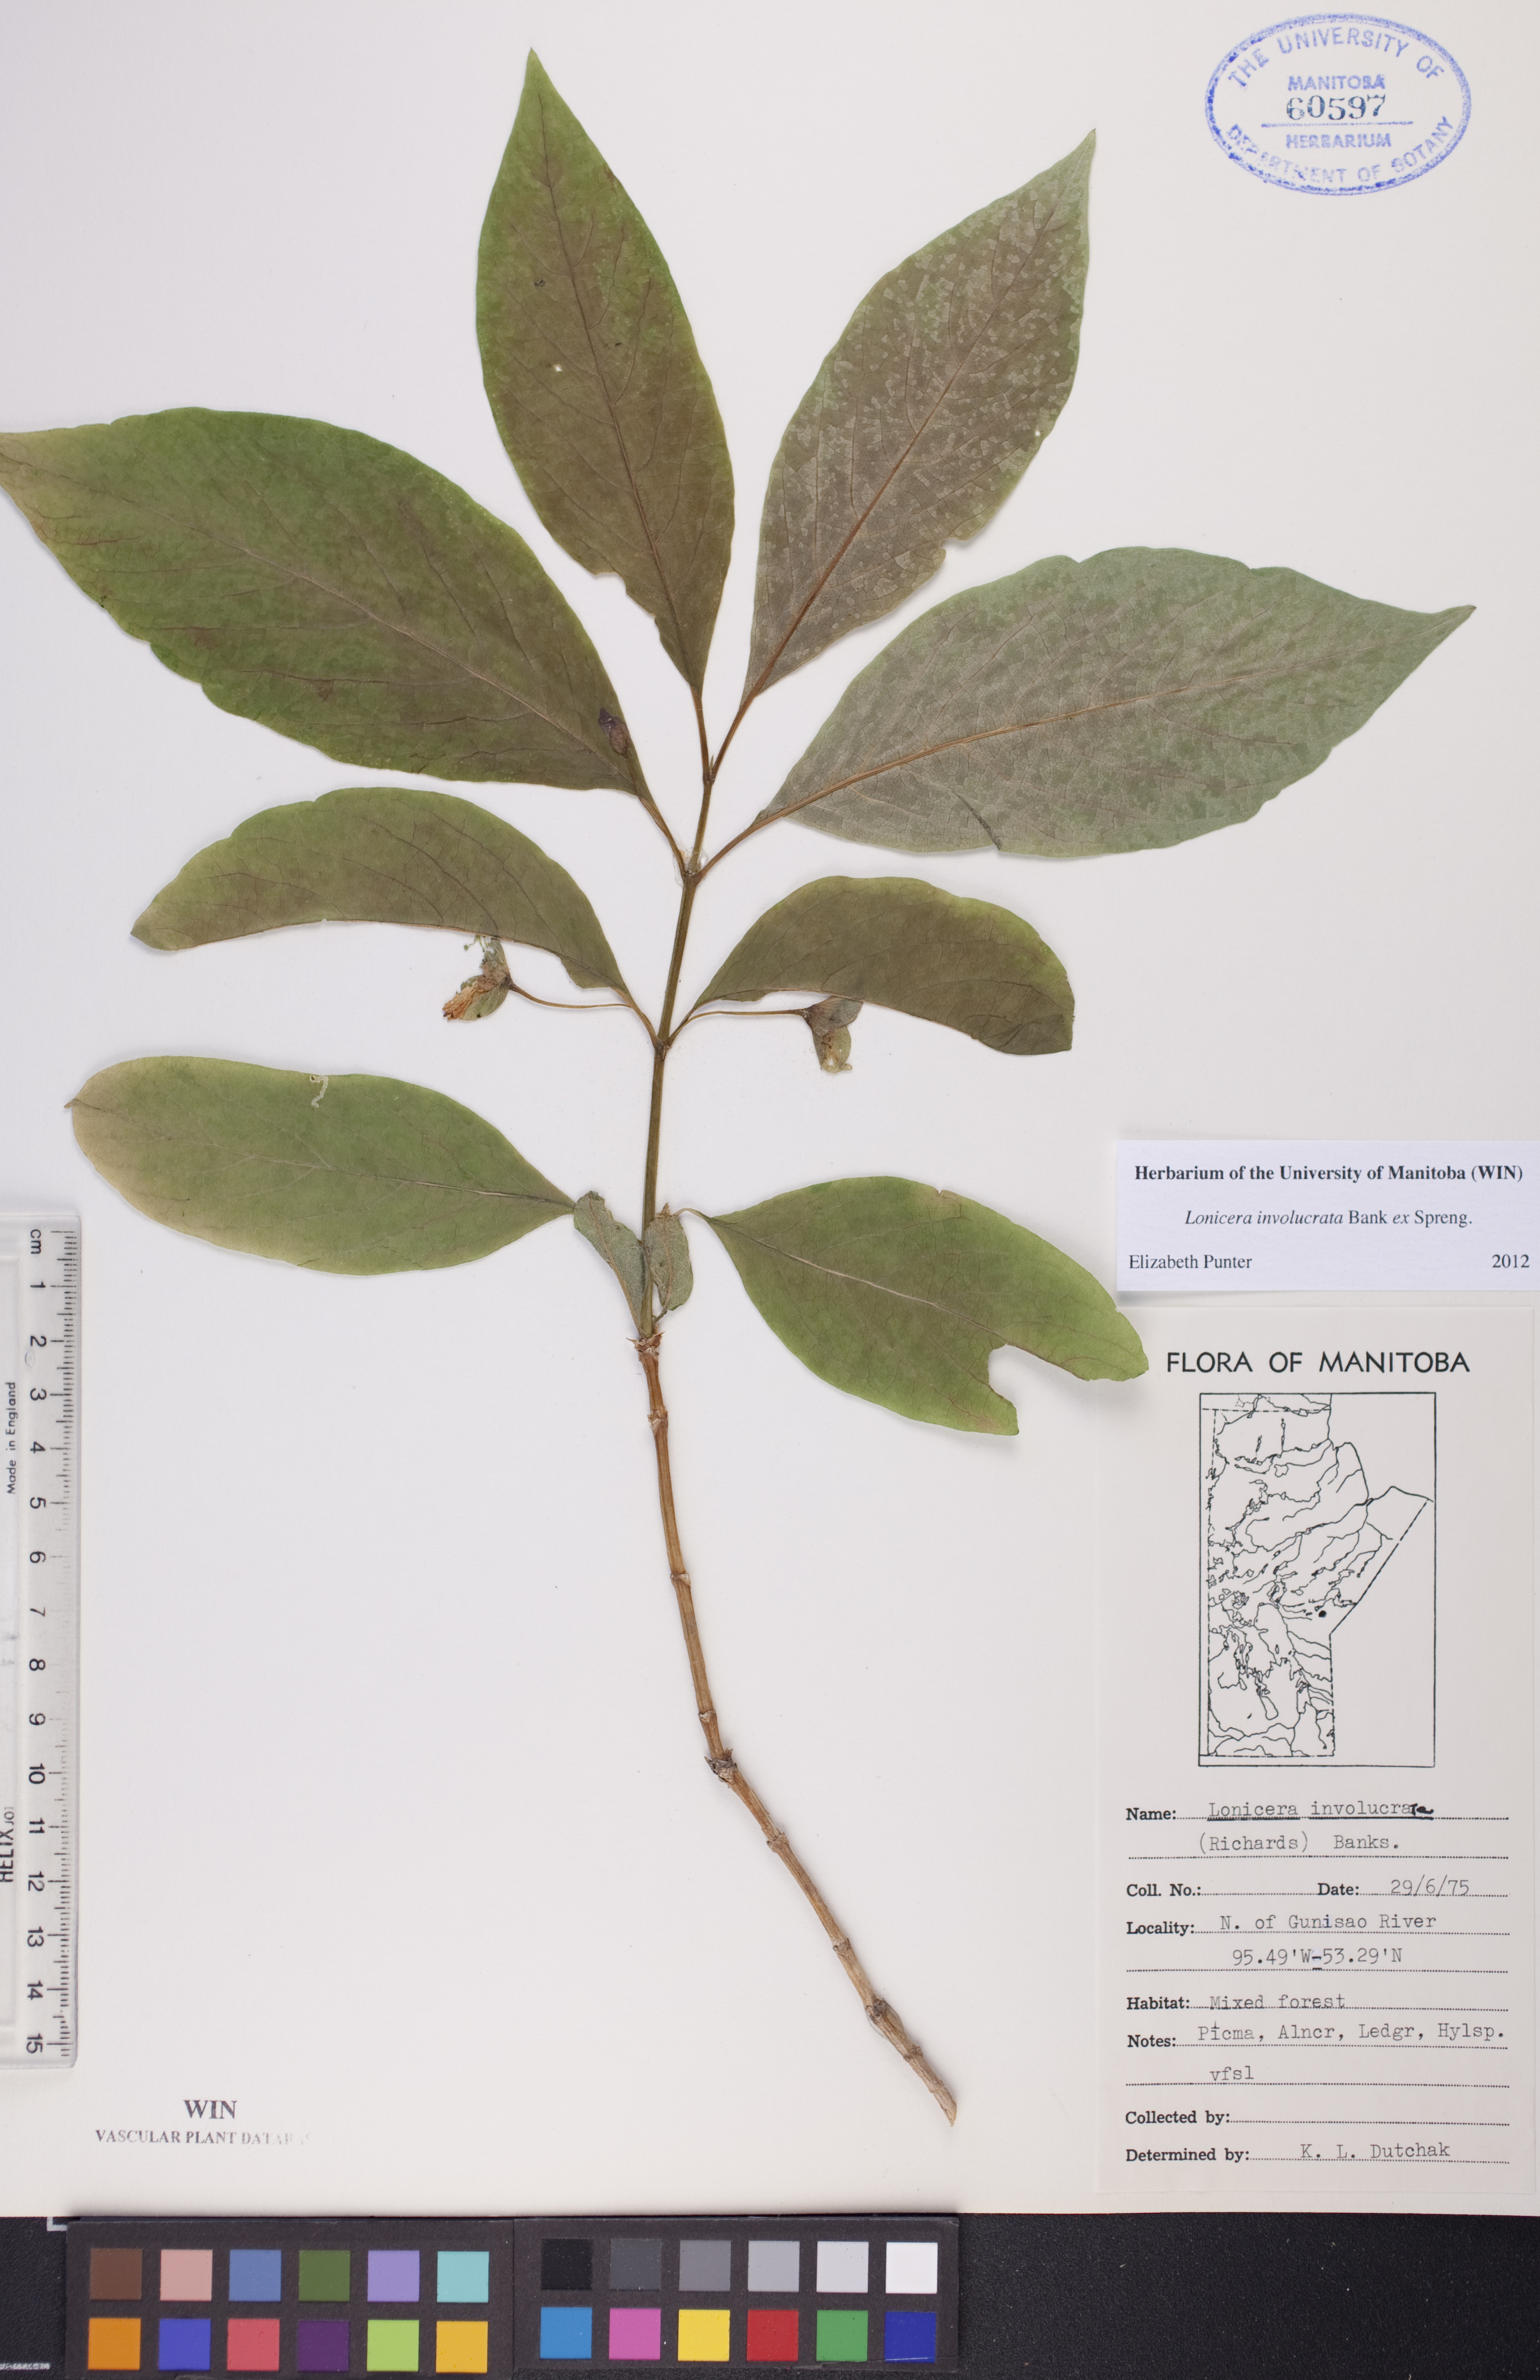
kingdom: Plantae
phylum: Tracheophyta
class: Magnoliopsida
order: Dipsacales
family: Caprifoliaceae
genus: Lonicera
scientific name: Lonicera involucrata
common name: Californian honeysuckle
